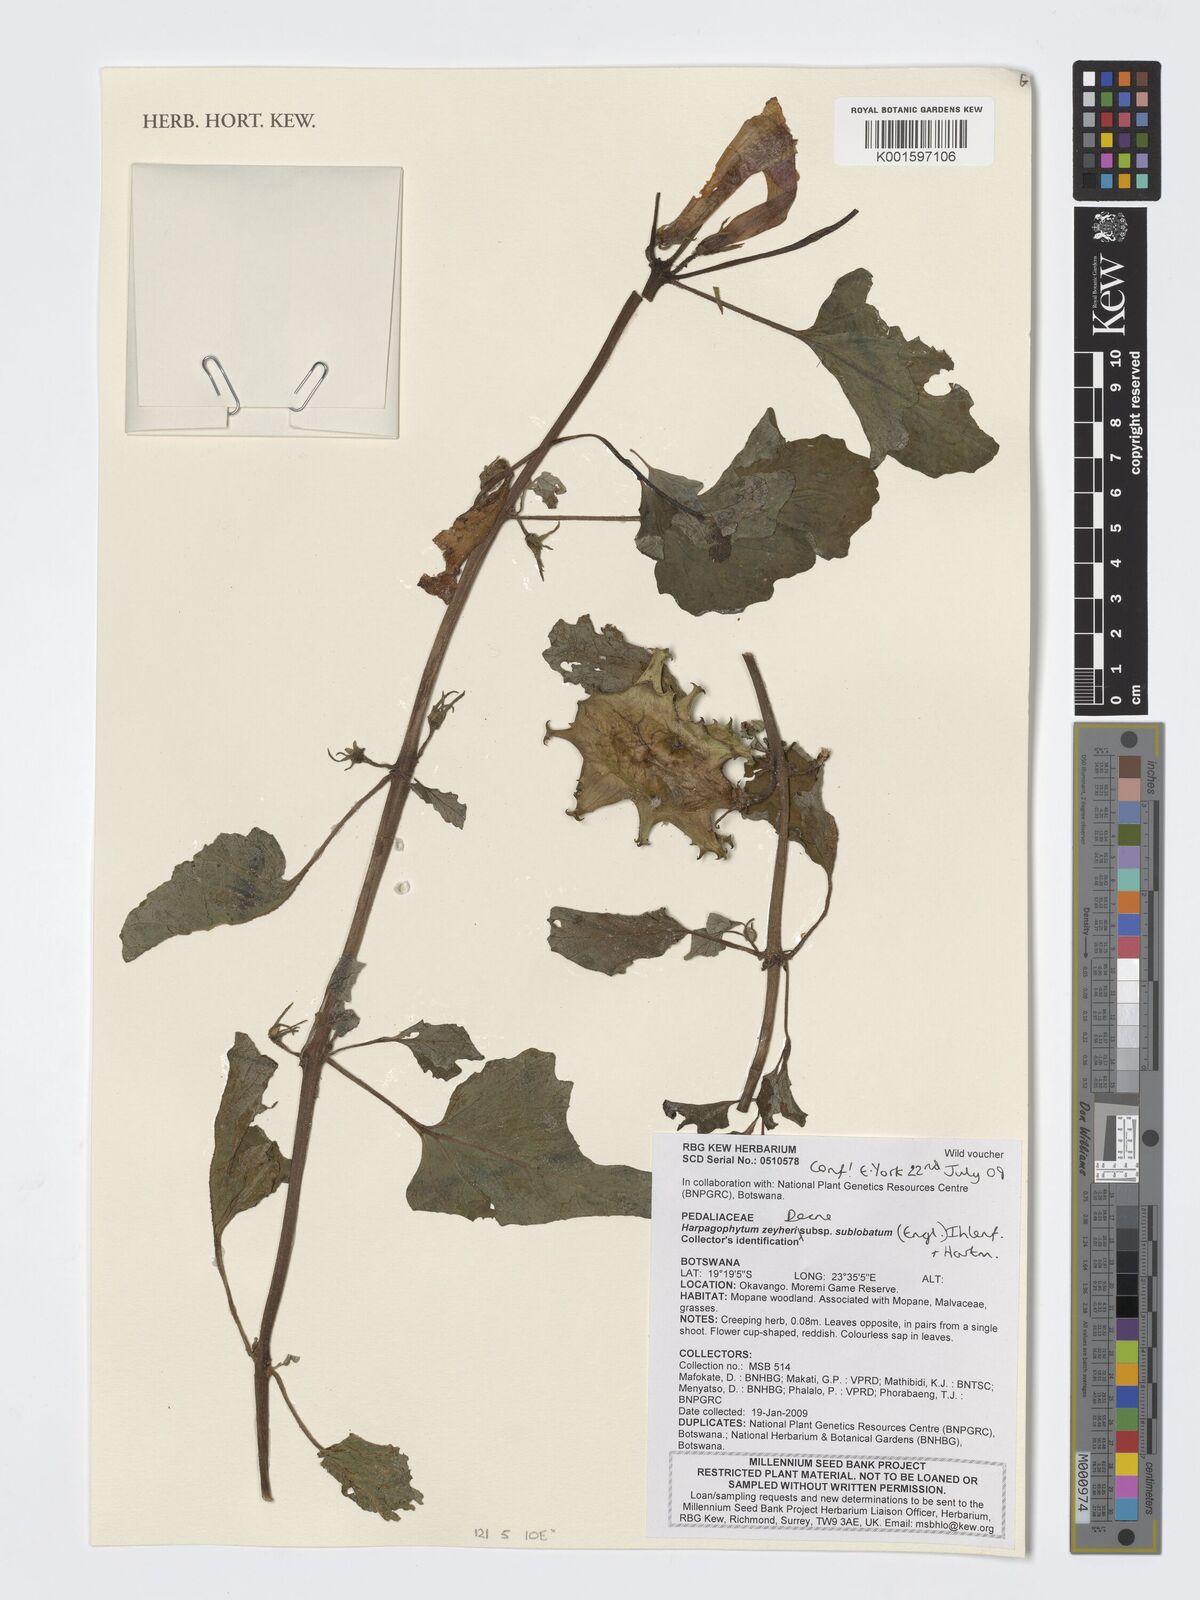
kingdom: Plantae
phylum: Tracheophyta
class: Magnoliopsida
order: Lamiales
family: Pedaliaceae
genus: Harpagophytum
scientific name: Harpagophytum zeyheri
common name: Grappleplant
